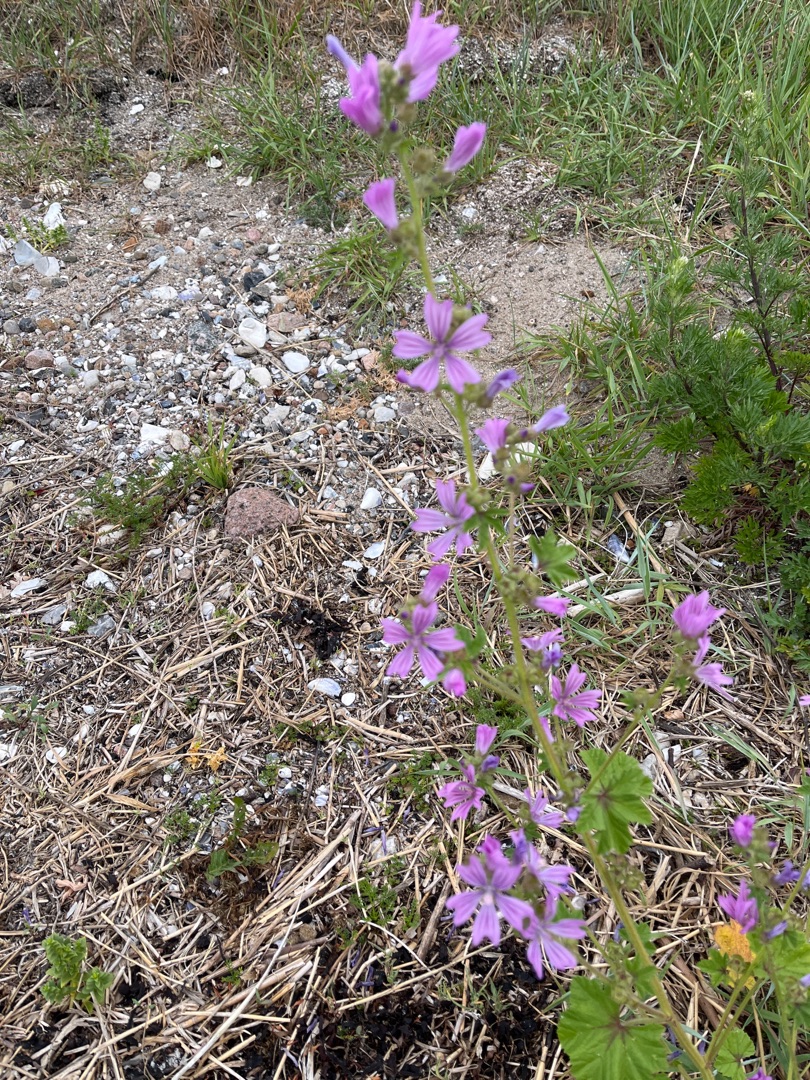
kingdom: Plantae
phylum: Tracheophyta
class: Magnoliopsida
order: Malvales
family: Malvaceae
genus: Malva
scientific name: Malva sylvestris
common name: Almindelig katost
